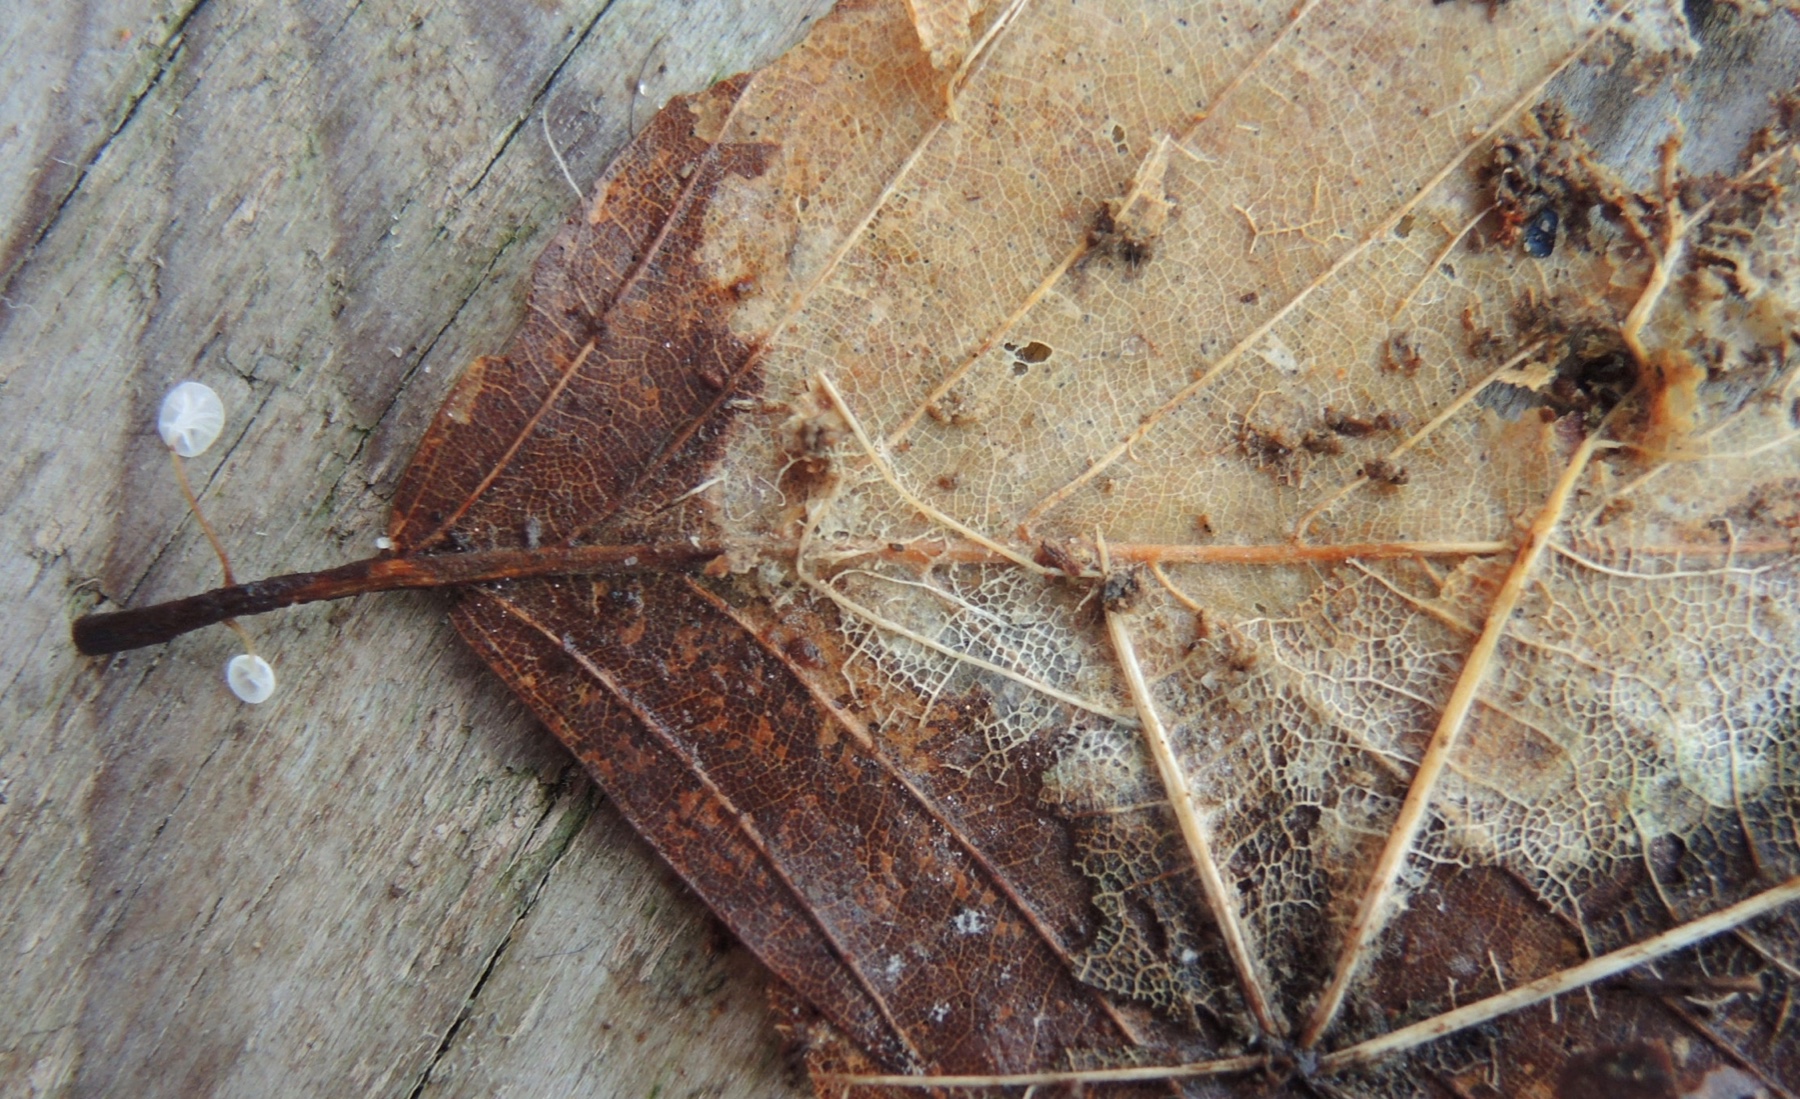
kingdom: Fungi
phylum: Basidiomycota
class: Agaricomycetes
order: Agaricales
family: Physalacriaceae
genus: Rhizomarasmius
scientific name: Rhizomarasmius setosus
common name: bøgeblads-bruskhat
